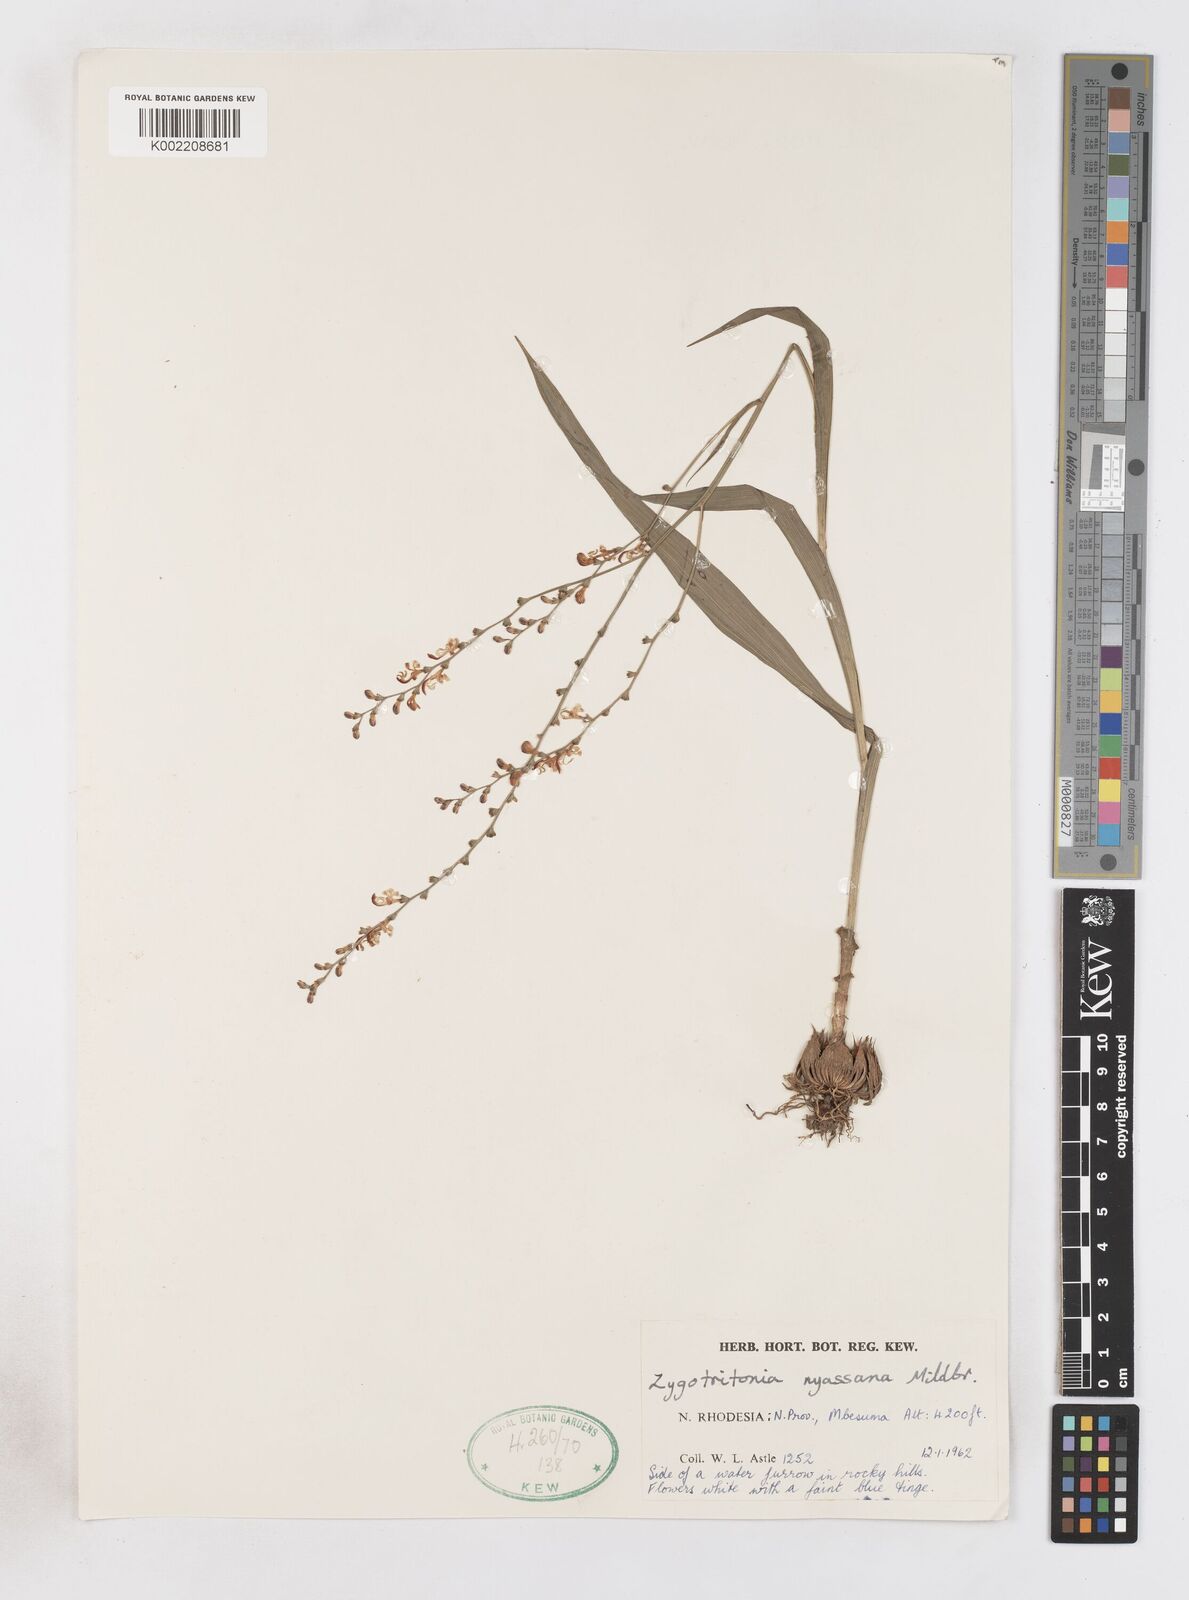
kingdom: Plantae
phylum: Tracheophyta
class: Liliopsida
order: Asparagales
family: Iridaceae
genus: Zygotritonia
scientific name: Zygotritonia nyassana
